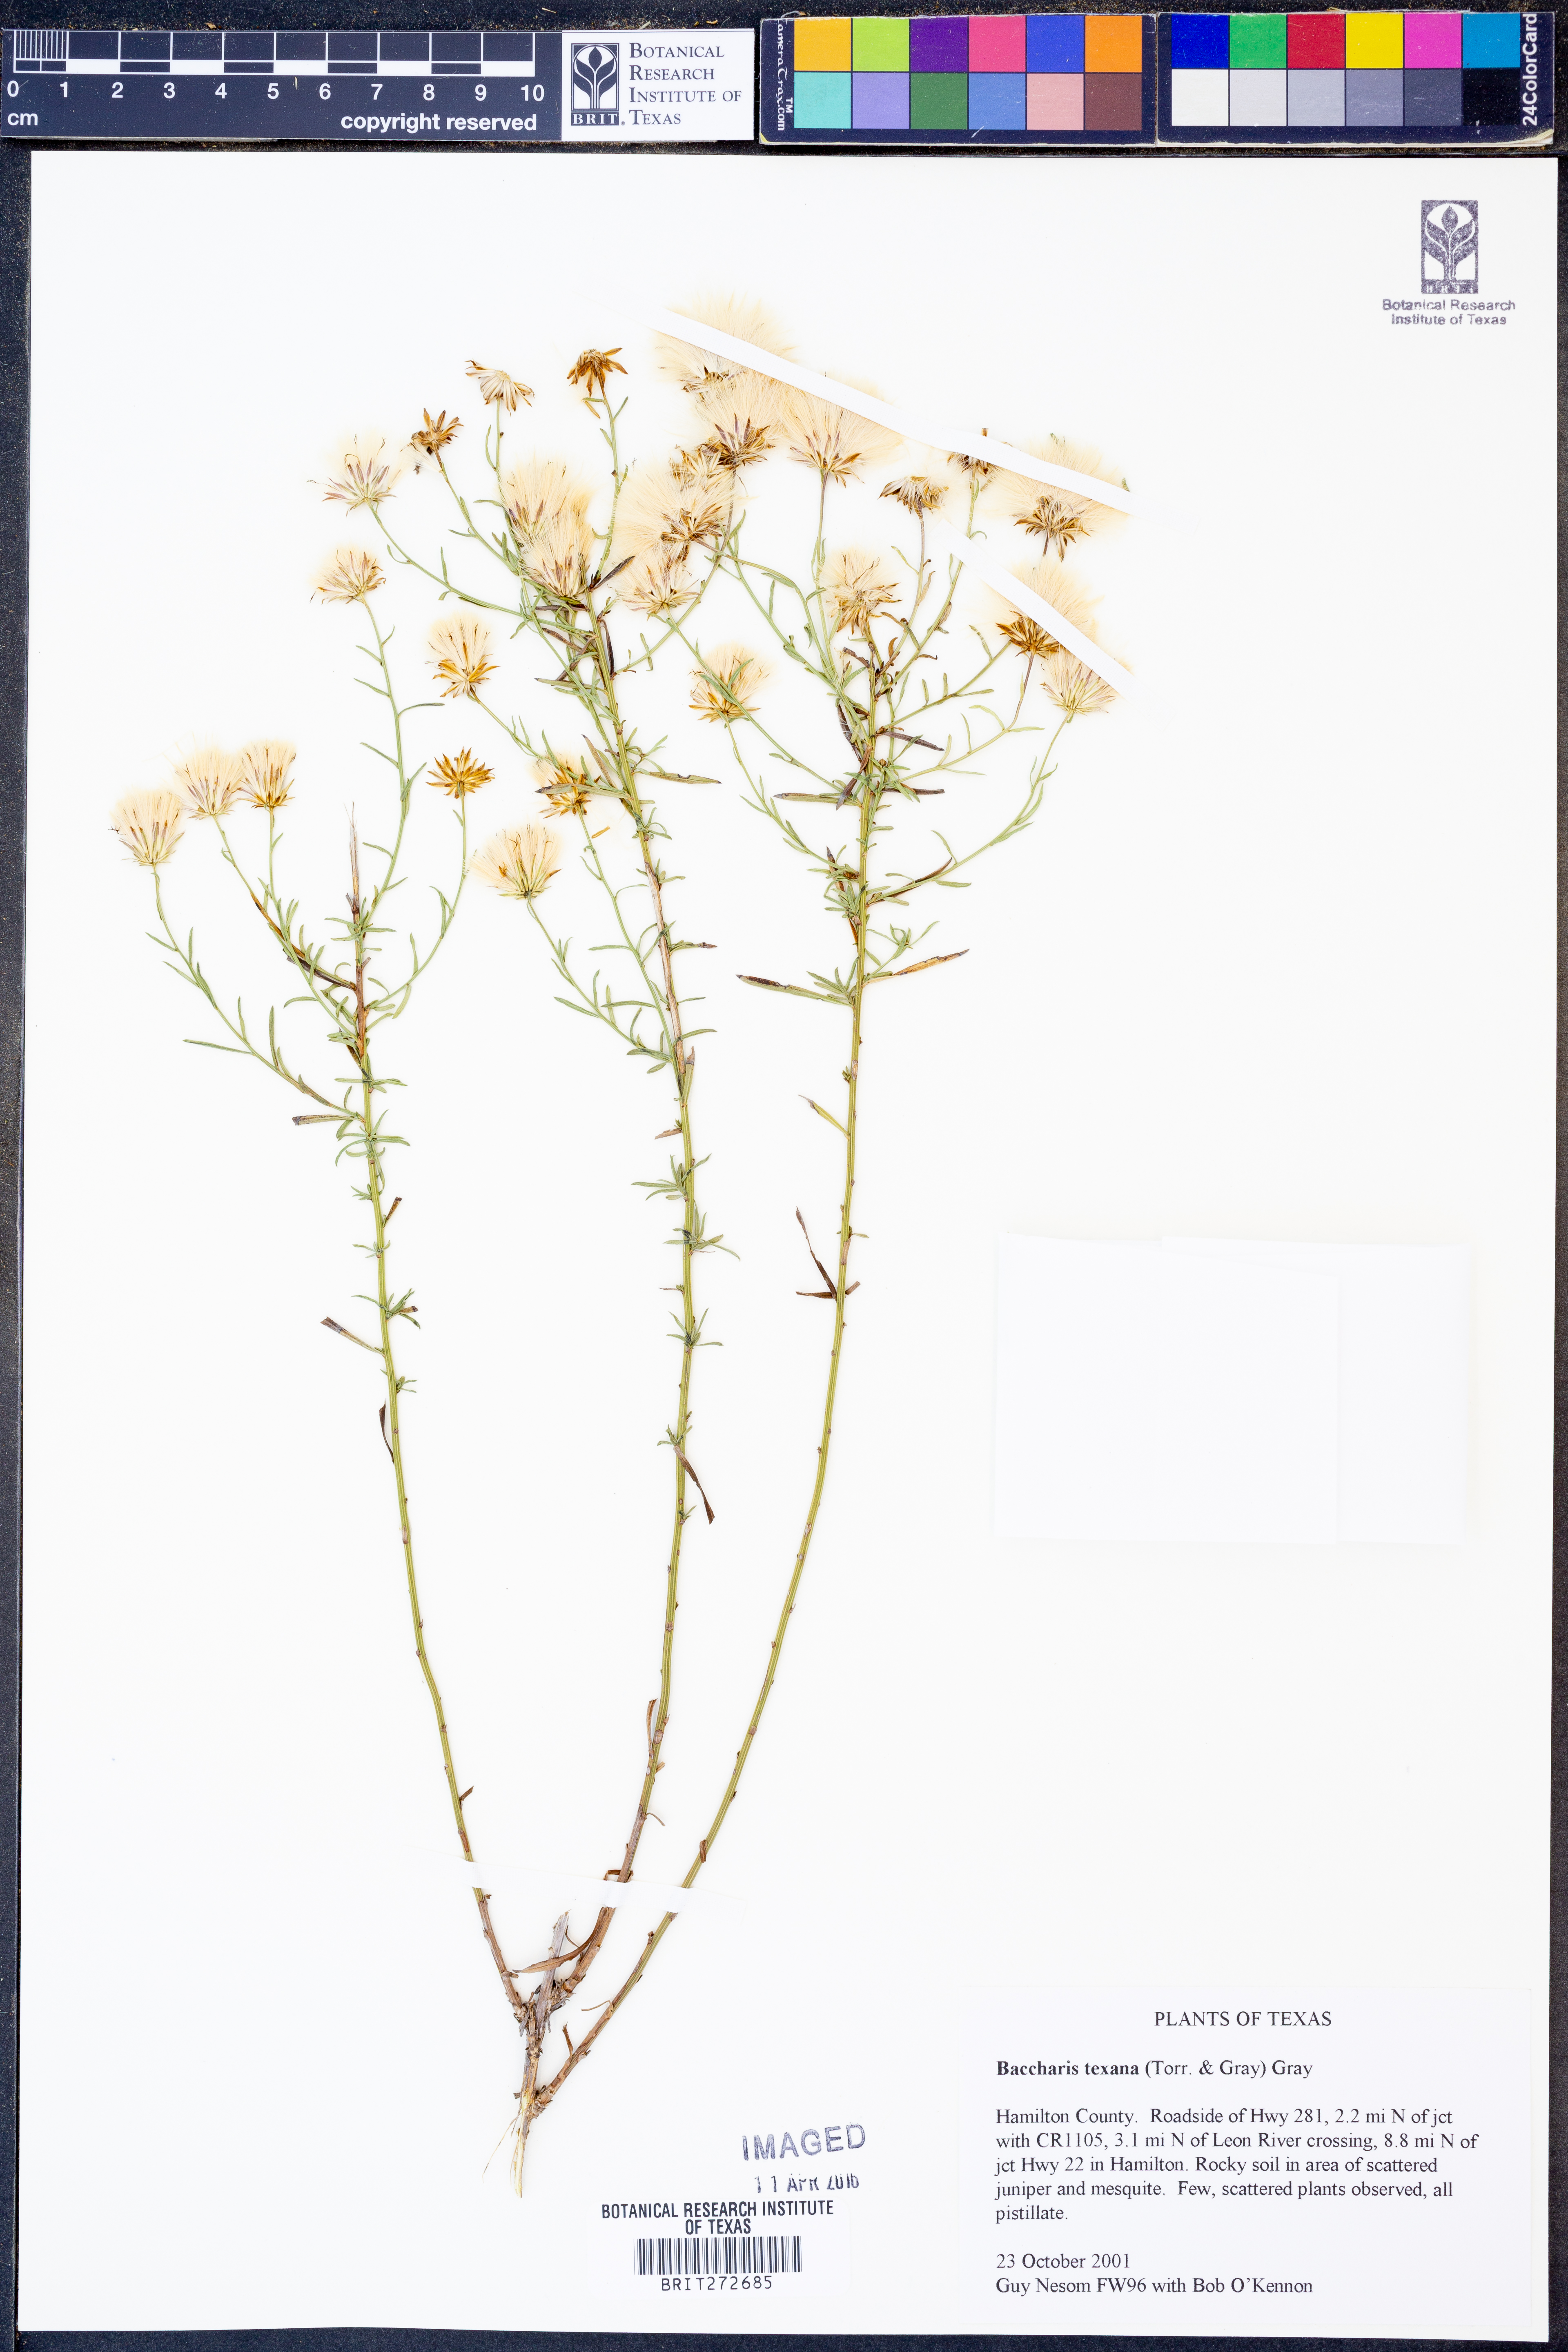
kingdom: Plantae
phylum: Tracheophyta
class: Magnoliopsida
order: Asterales
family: Asteraceae
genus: Baccharis
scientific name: Baccharis texana
